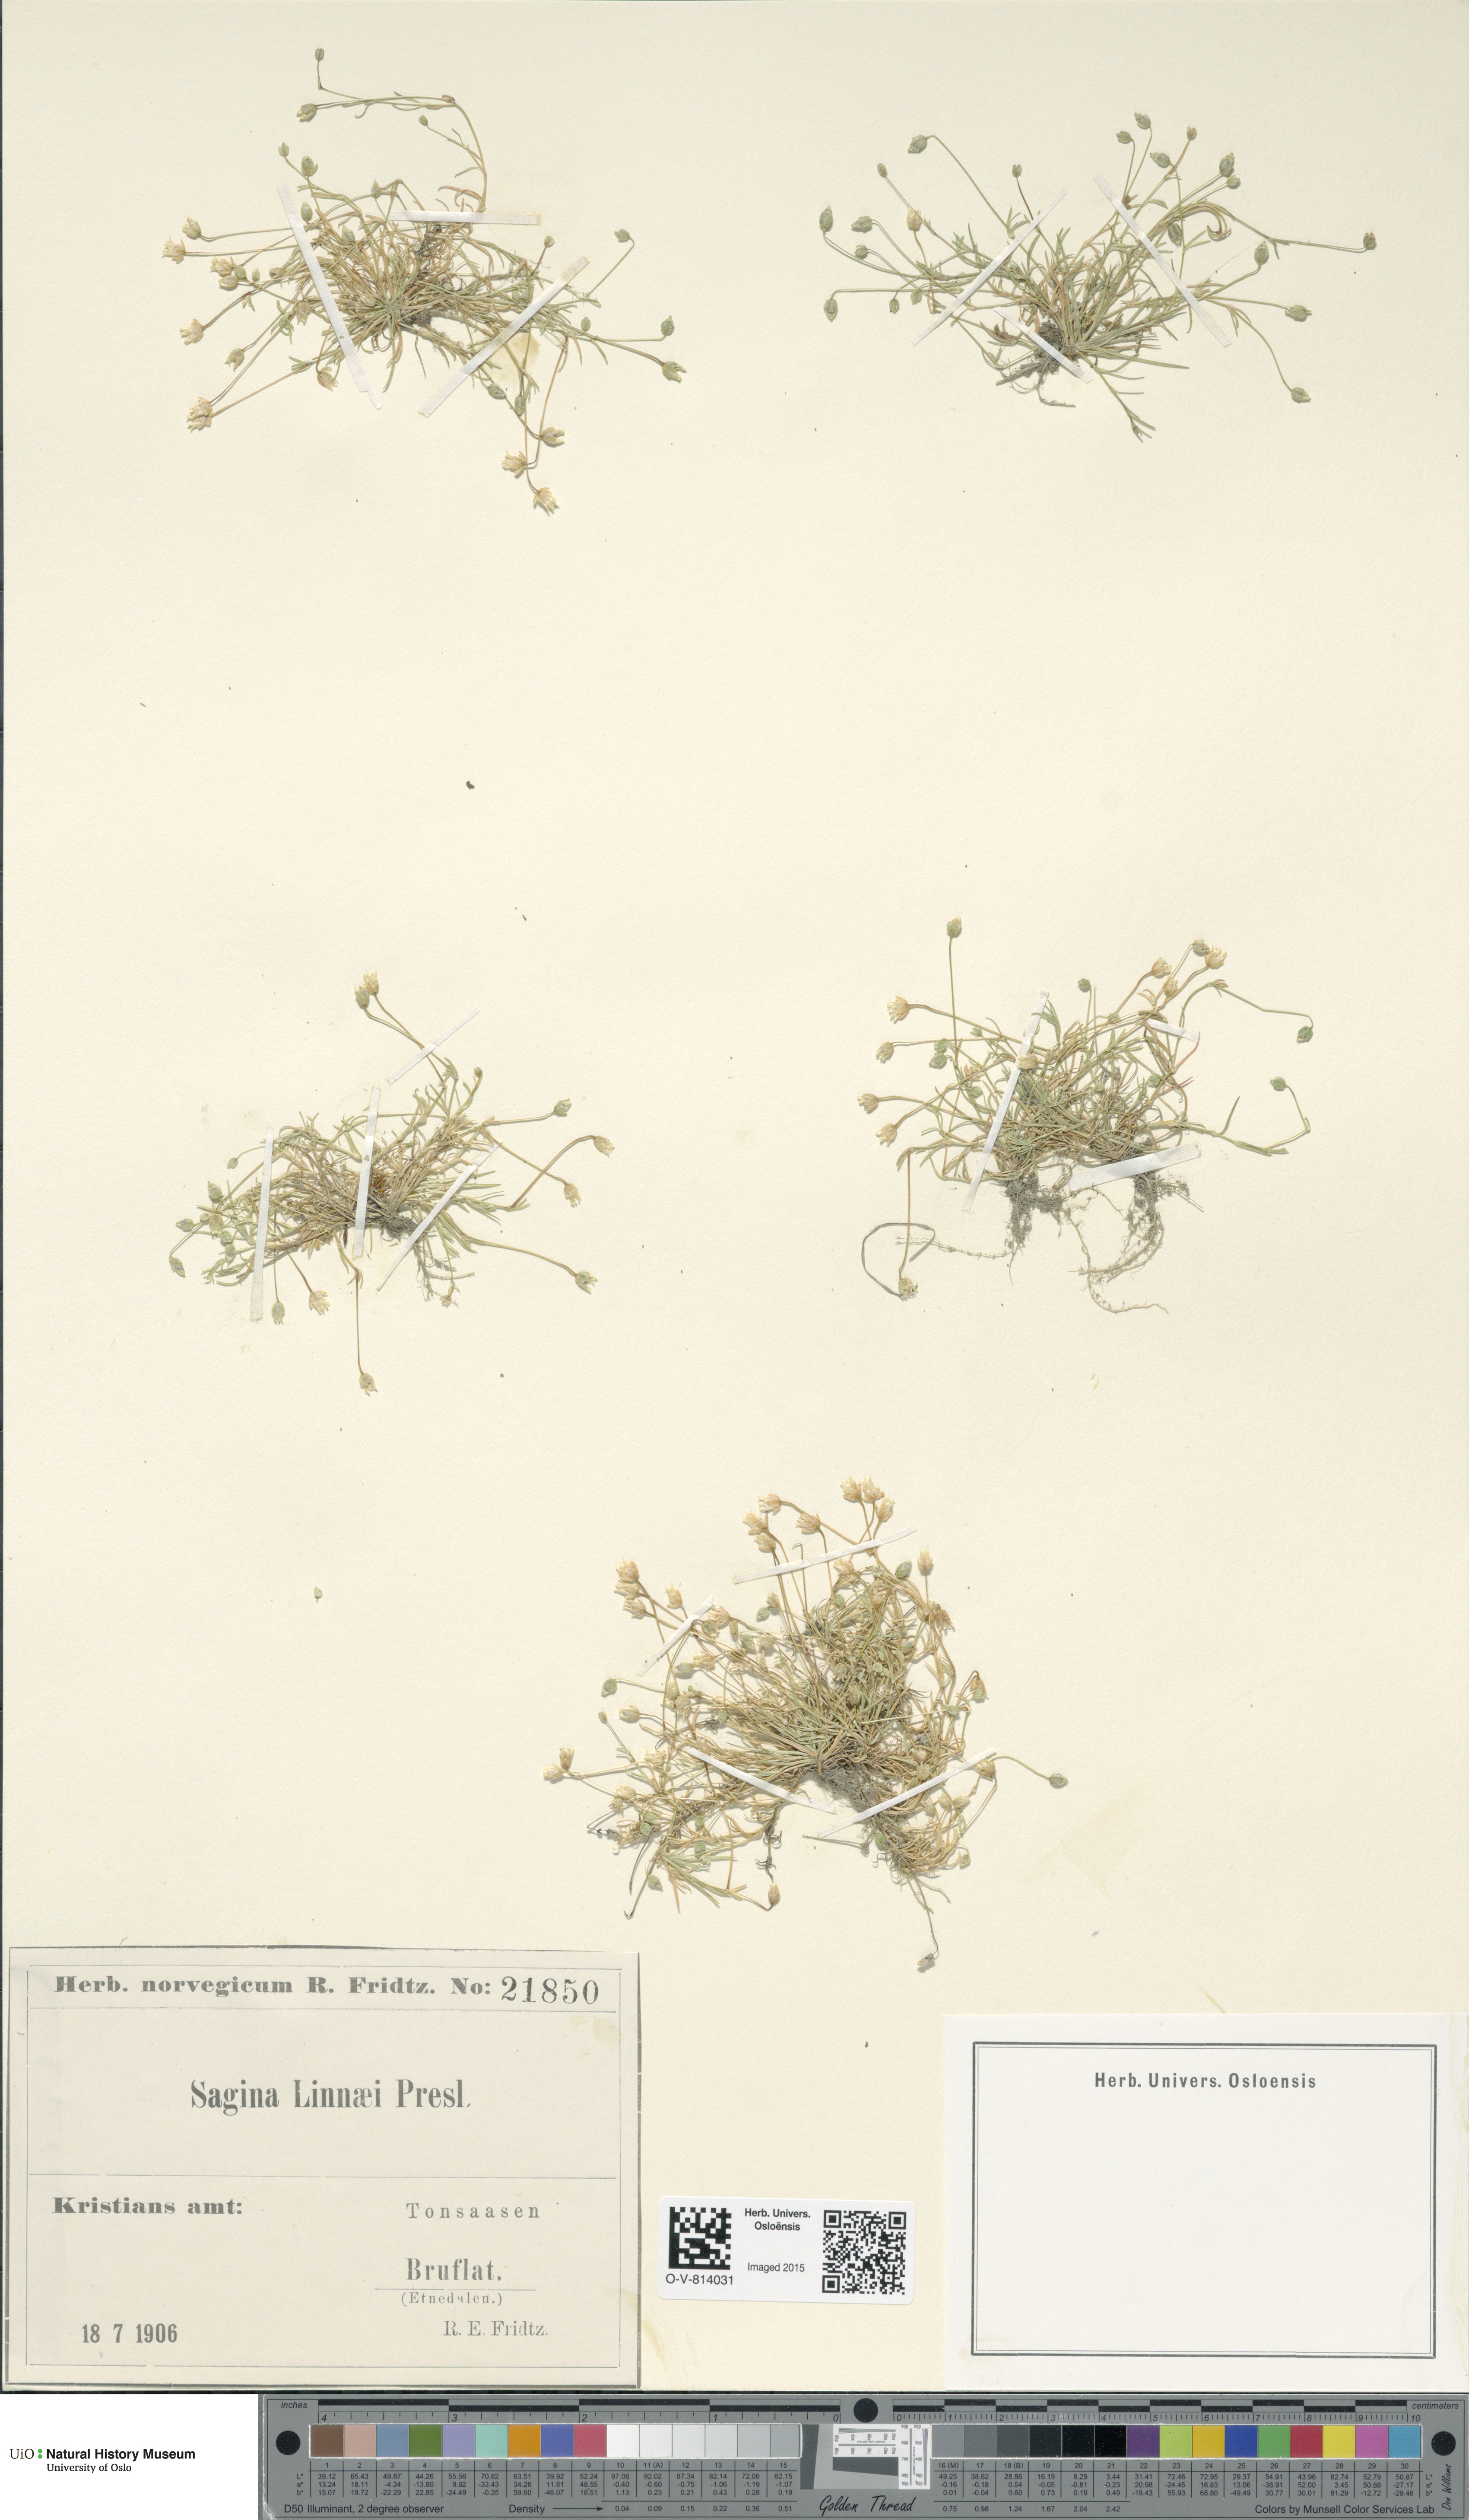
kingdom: Plantae
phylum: Tracheophyta
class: Magnoliopsida
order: Caryophyllales
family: Caryophyllaceae
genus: Sagina
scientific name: Sagina saginoides
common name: Alpine pearlwort
